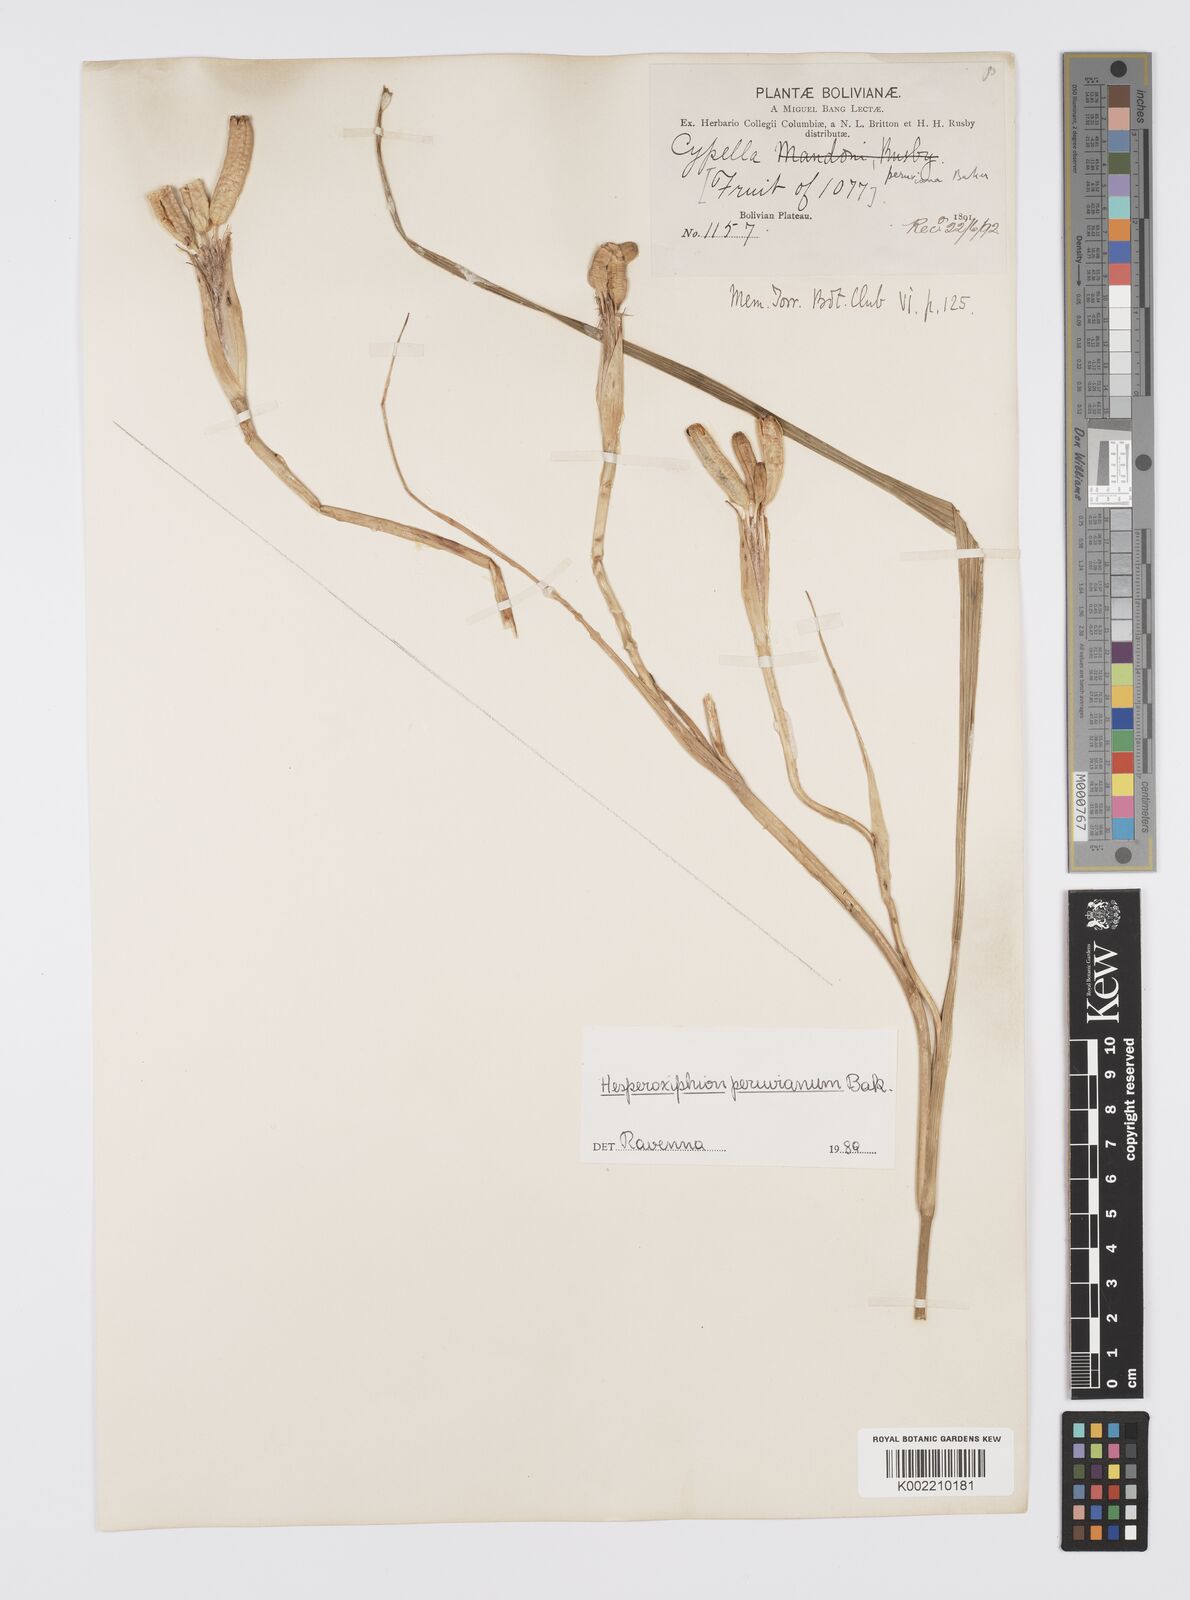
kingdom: Plantae
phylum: Tracheophyta
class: Liliopsida
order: Asparagales
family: Iridaceae
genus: Hesperoxiphion
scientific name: Hesperoxiphion peruvianum
